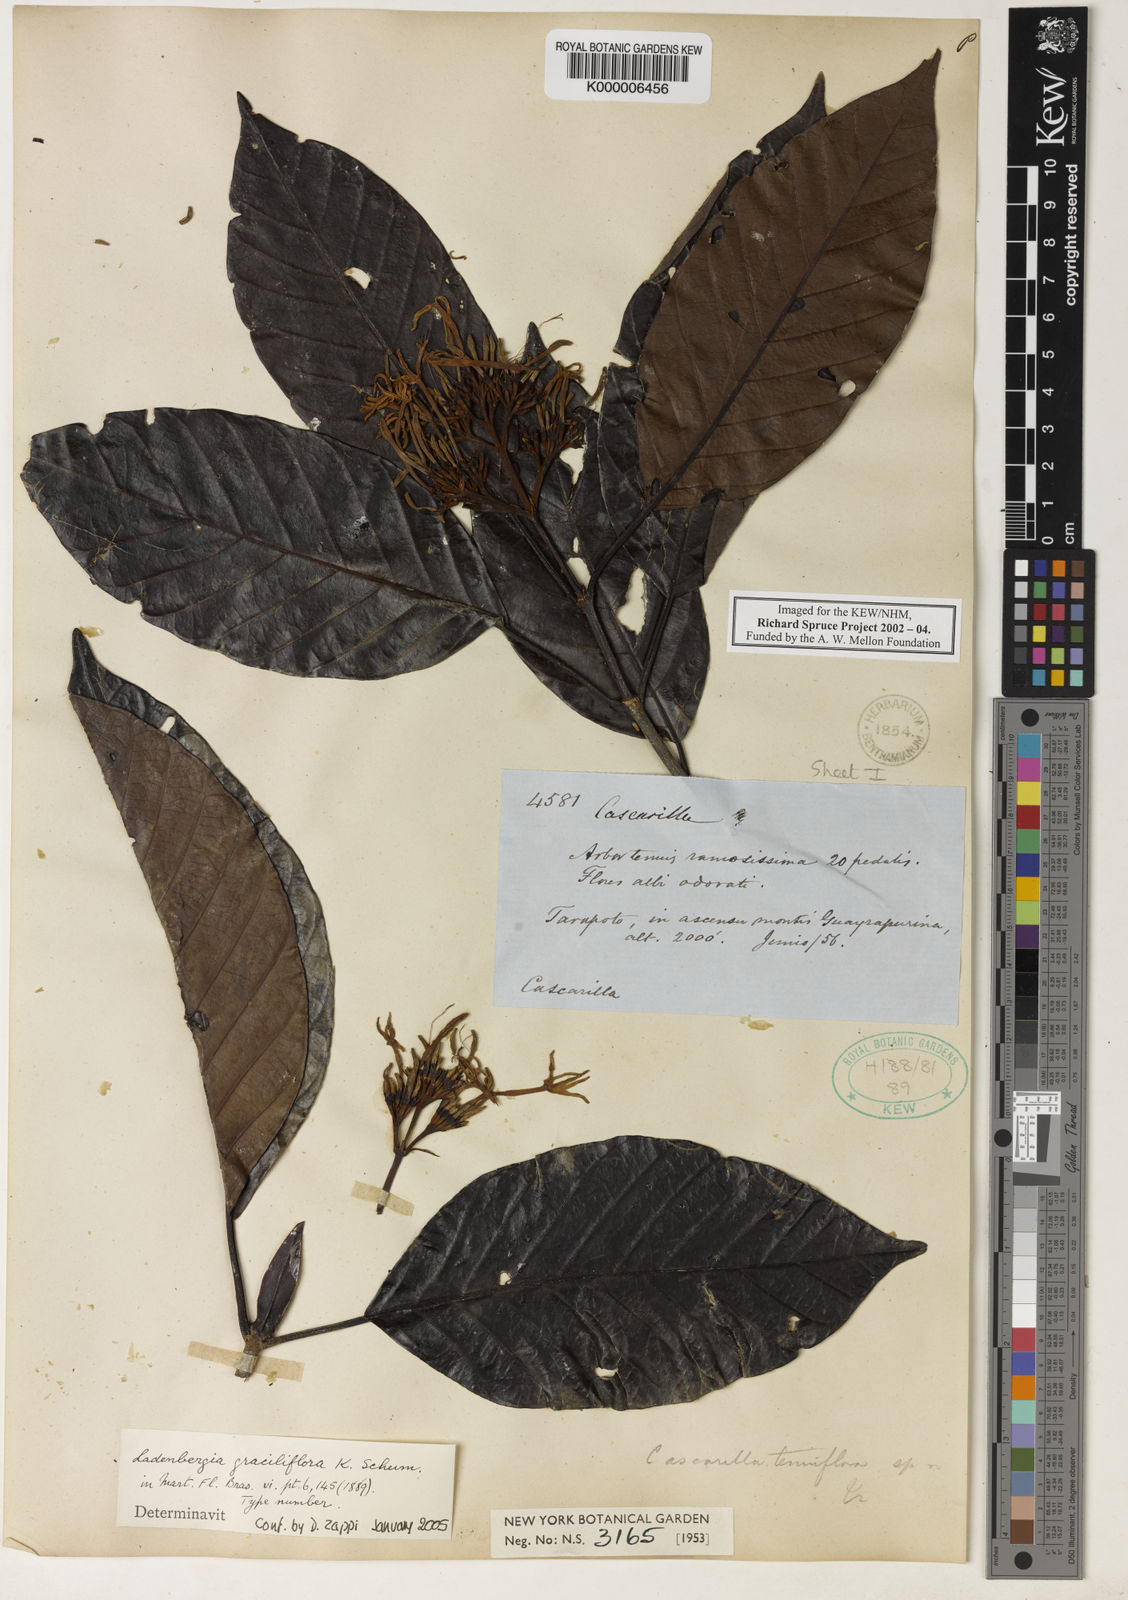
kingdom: Plantae
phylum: Tracheophyta
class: Magnoliopsida
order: Gentianales
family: Rubiaceae
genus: Ladenbergia
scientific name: Ladenbergia graciliflora
